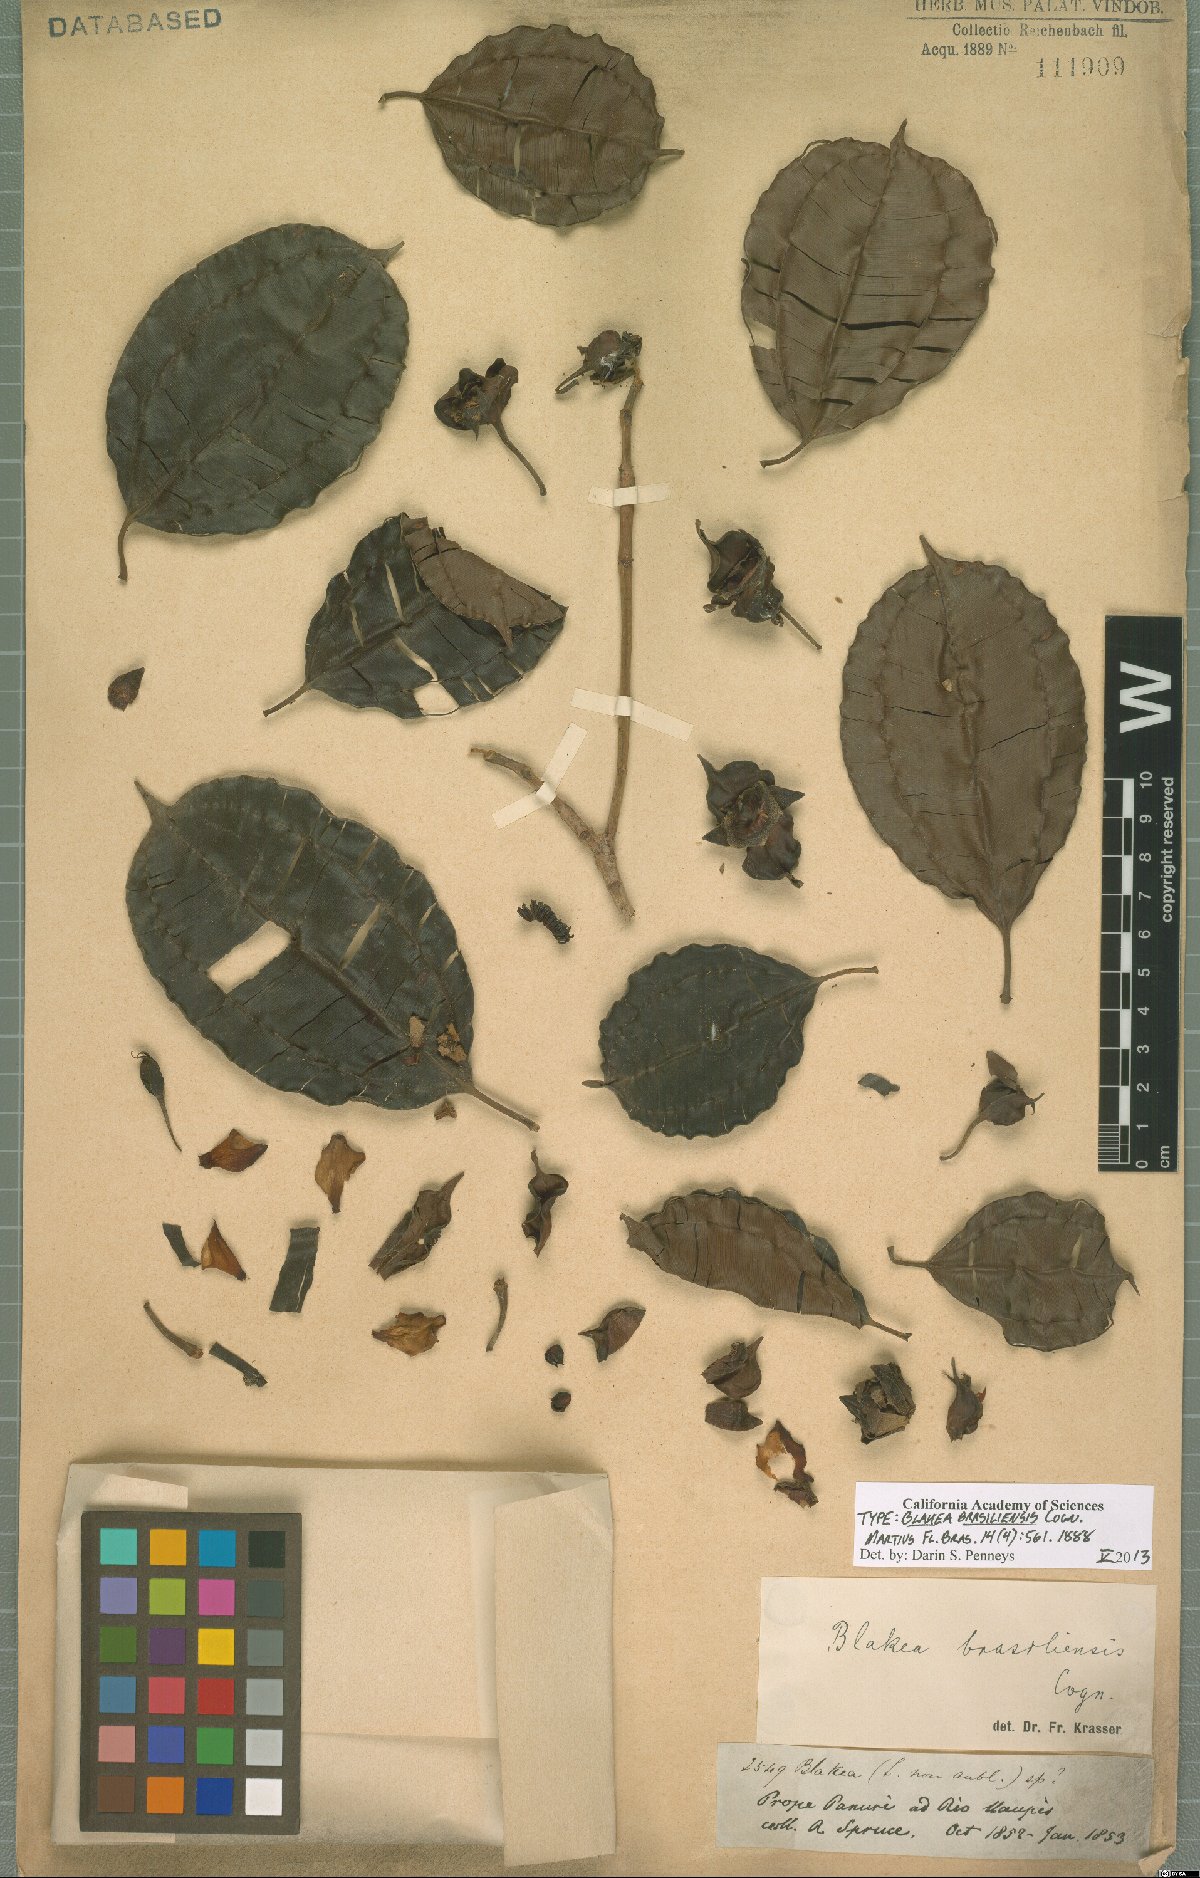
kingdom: Plantae
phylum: Tracheophyta
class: Magnoliopsida
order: Myrtales
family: Melastomataceae
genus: Blakea
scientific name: Blakea brasiliensis
